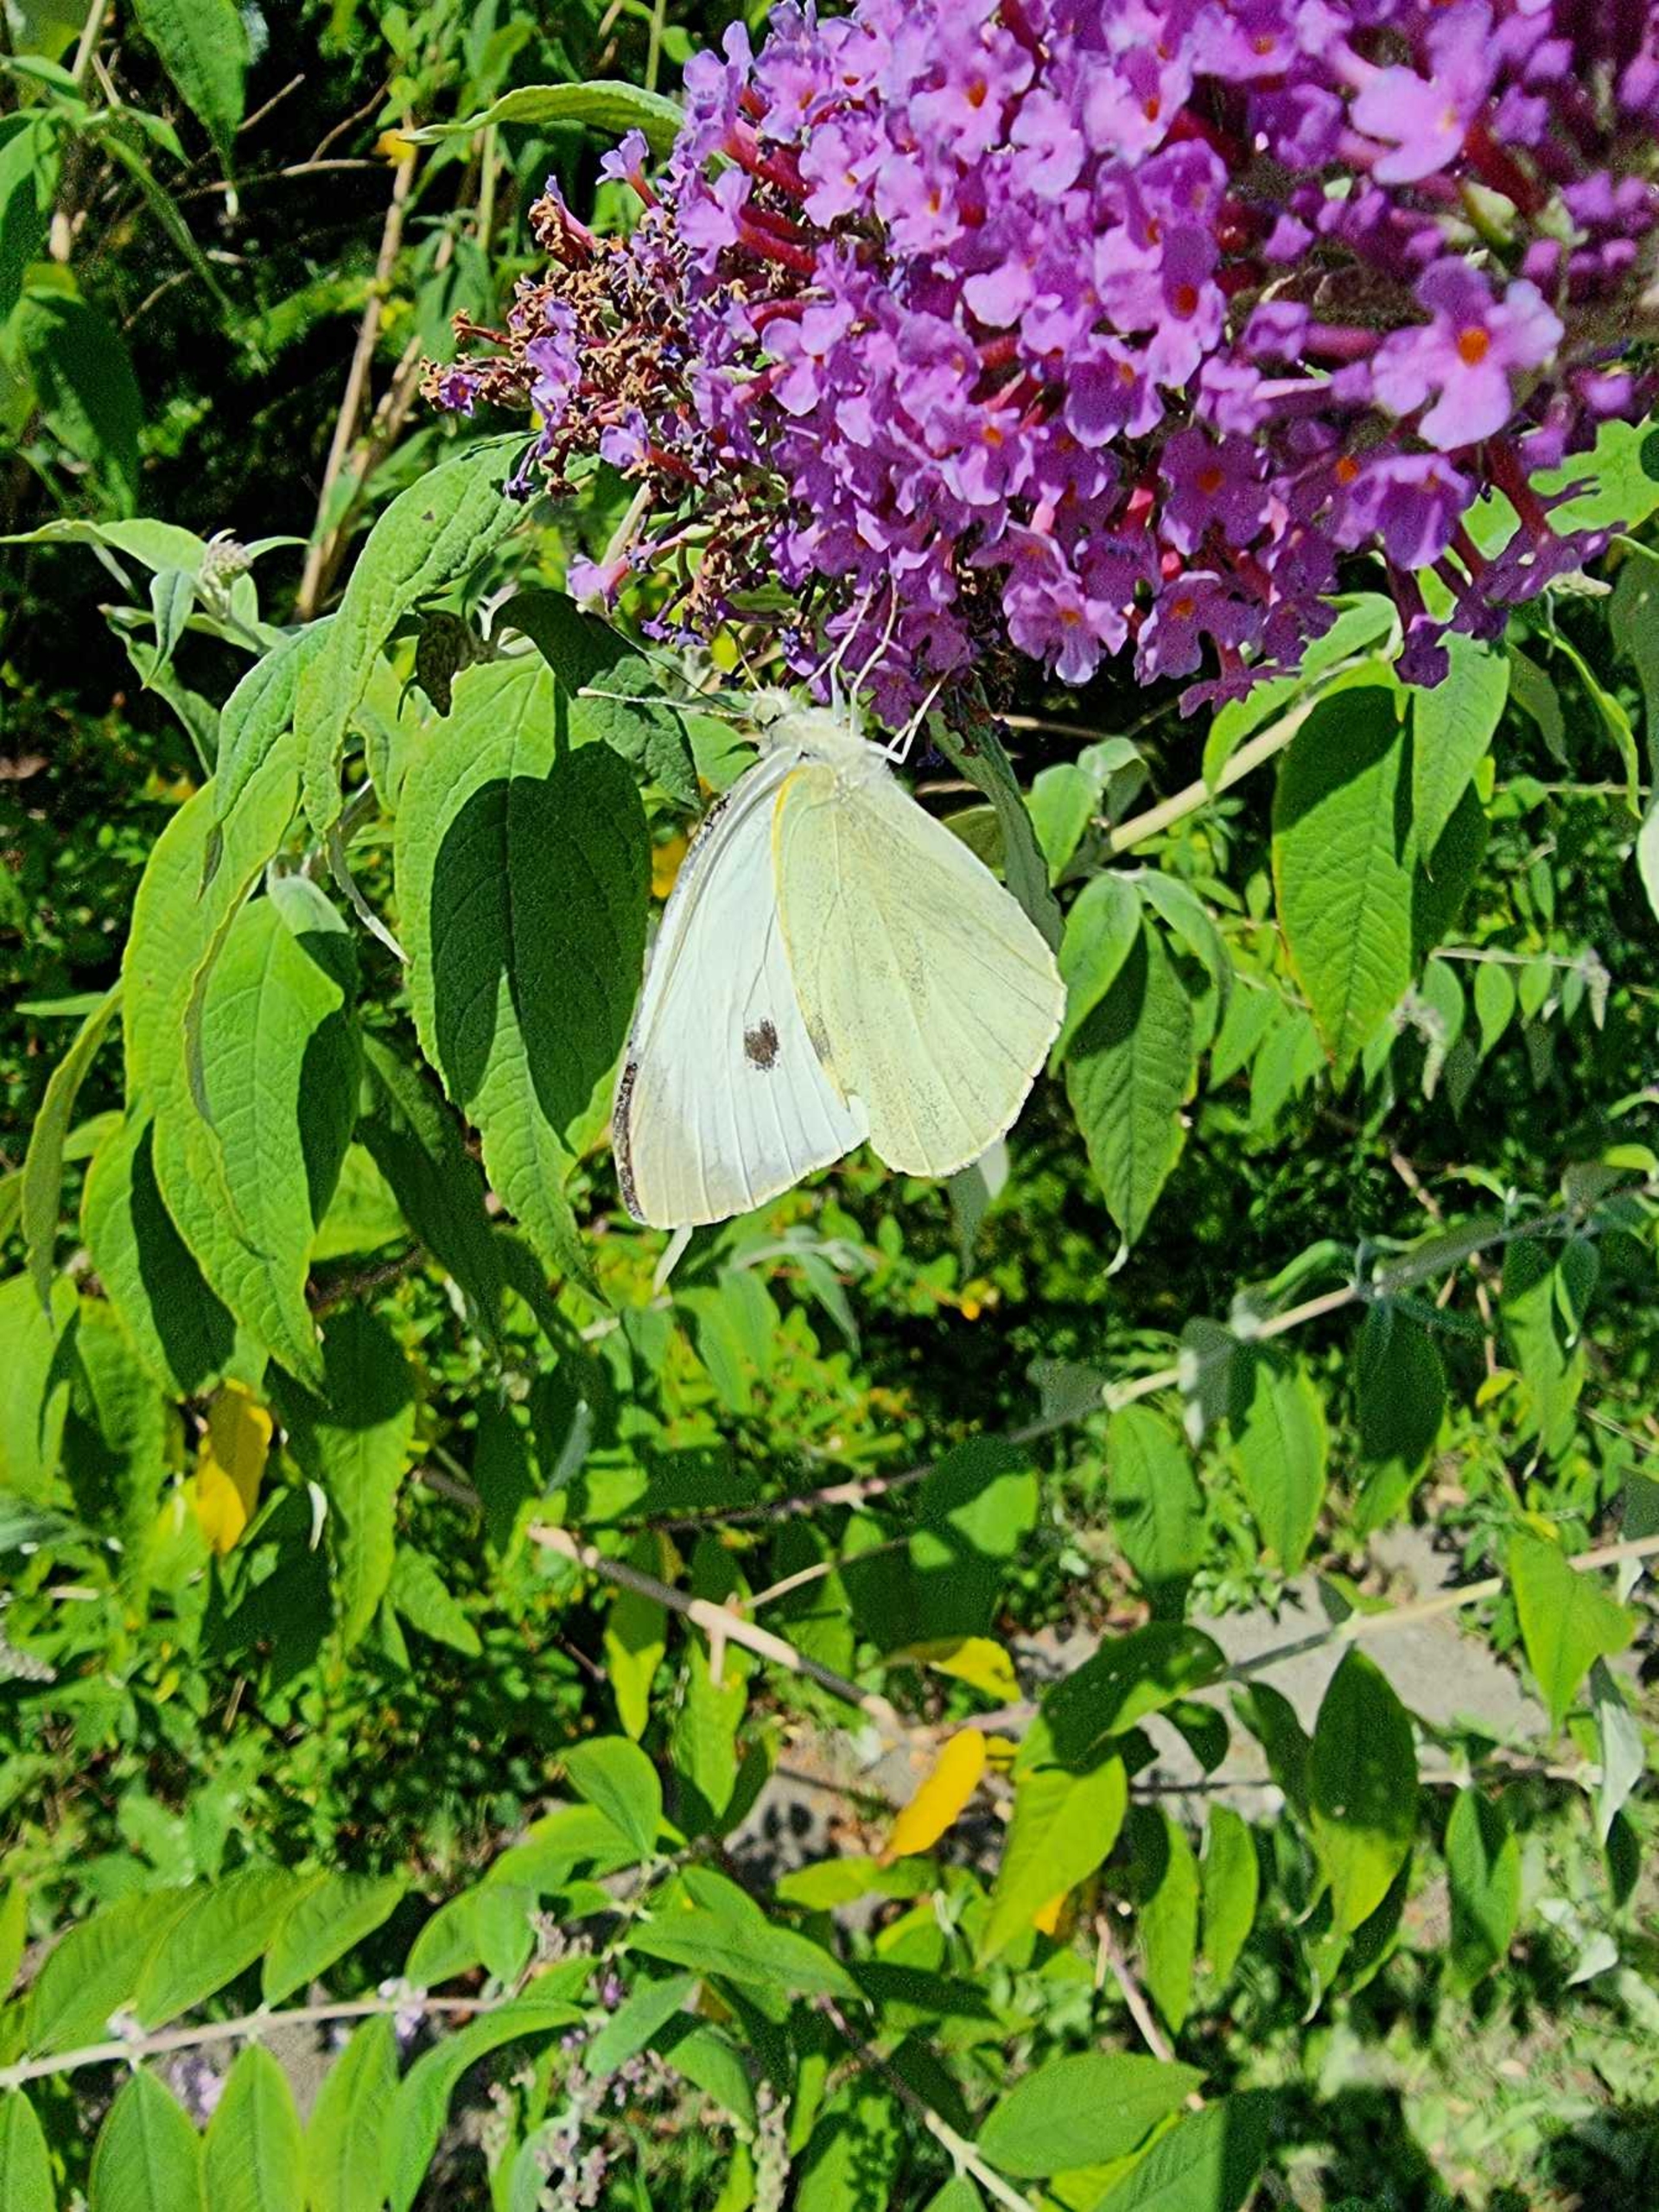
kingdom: Animalia
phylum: Arthropoda
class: Insecta
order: Lepidoptera
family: Pieridae
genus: Pieris
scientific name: Pieris brassicae
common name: Stor kålsommerfugl
